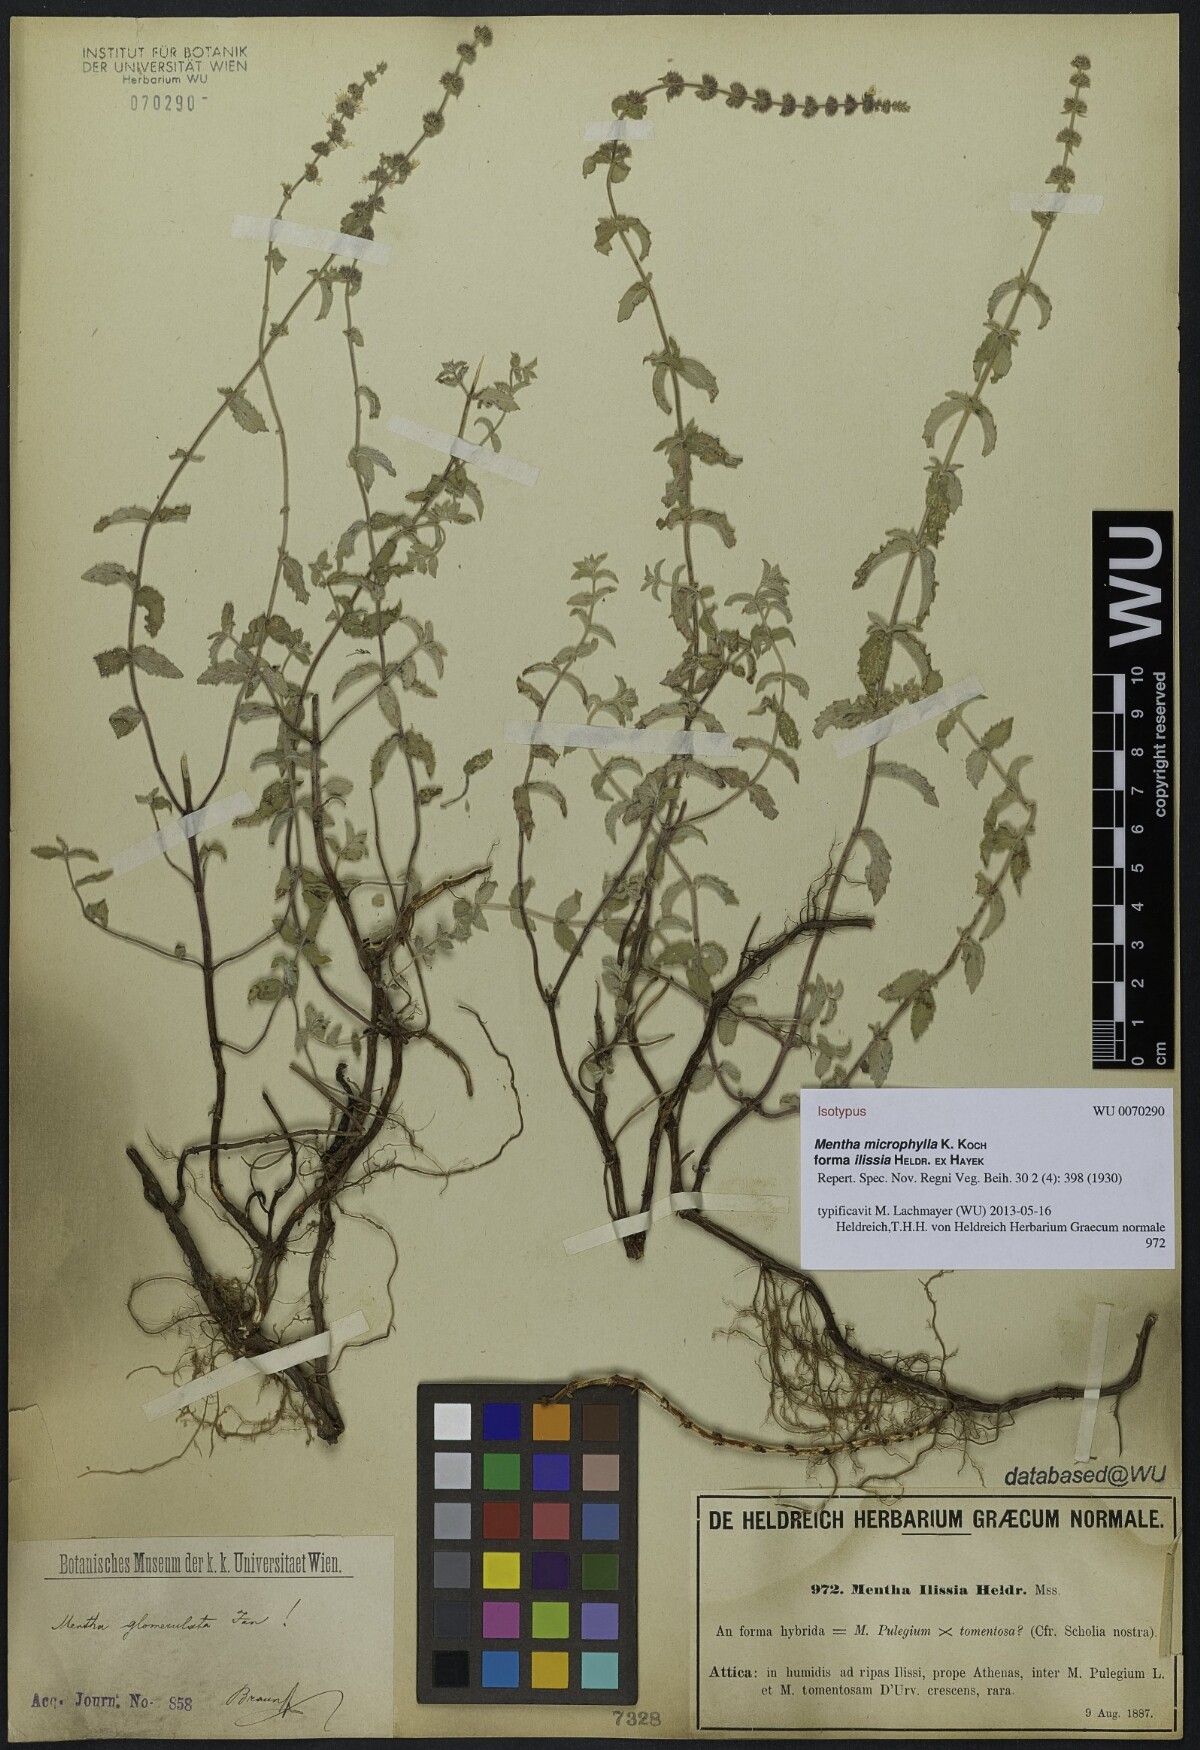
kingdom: Plantae
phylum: Tracheophyta
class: Magnoliopsida
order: Lamiales
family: Lamiaceae
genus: Mentha
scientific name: Mentha longifolia
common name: Horse mint
